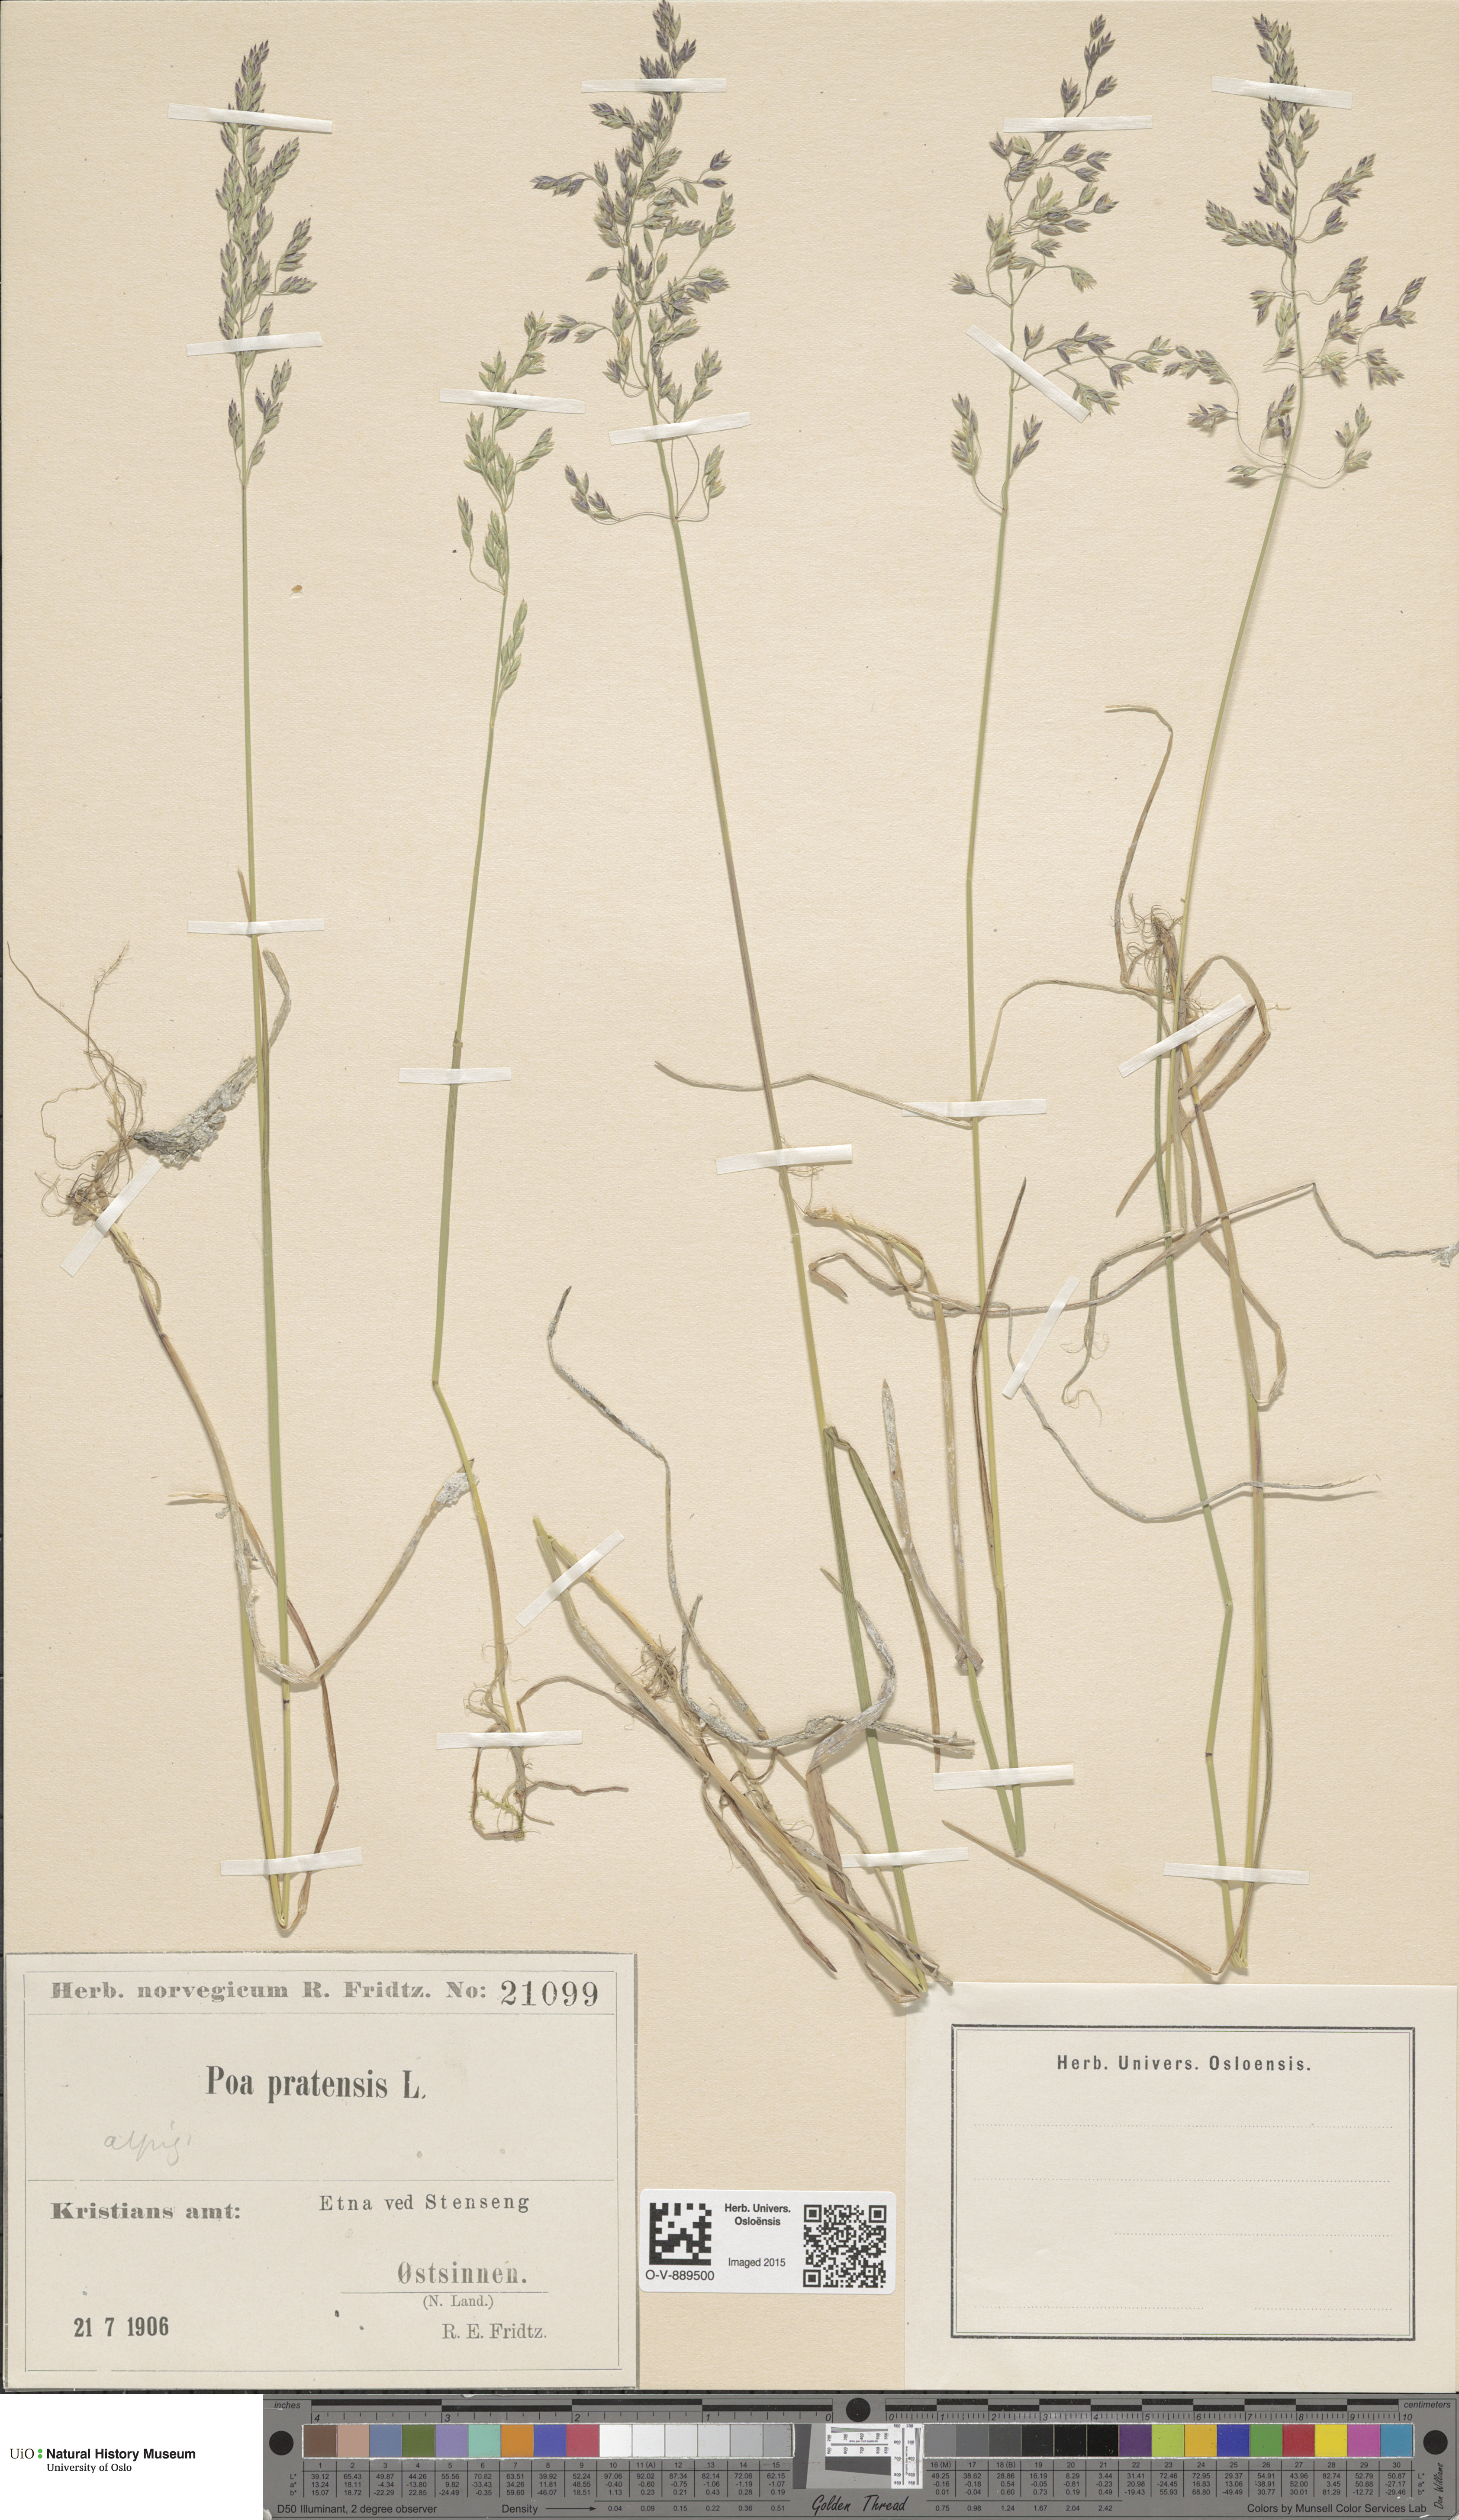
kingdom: Plantae
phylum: Tracheophyta
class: Liliopsida
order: Poales
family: Poaceae
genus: Poa
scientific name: Poa alpigena
